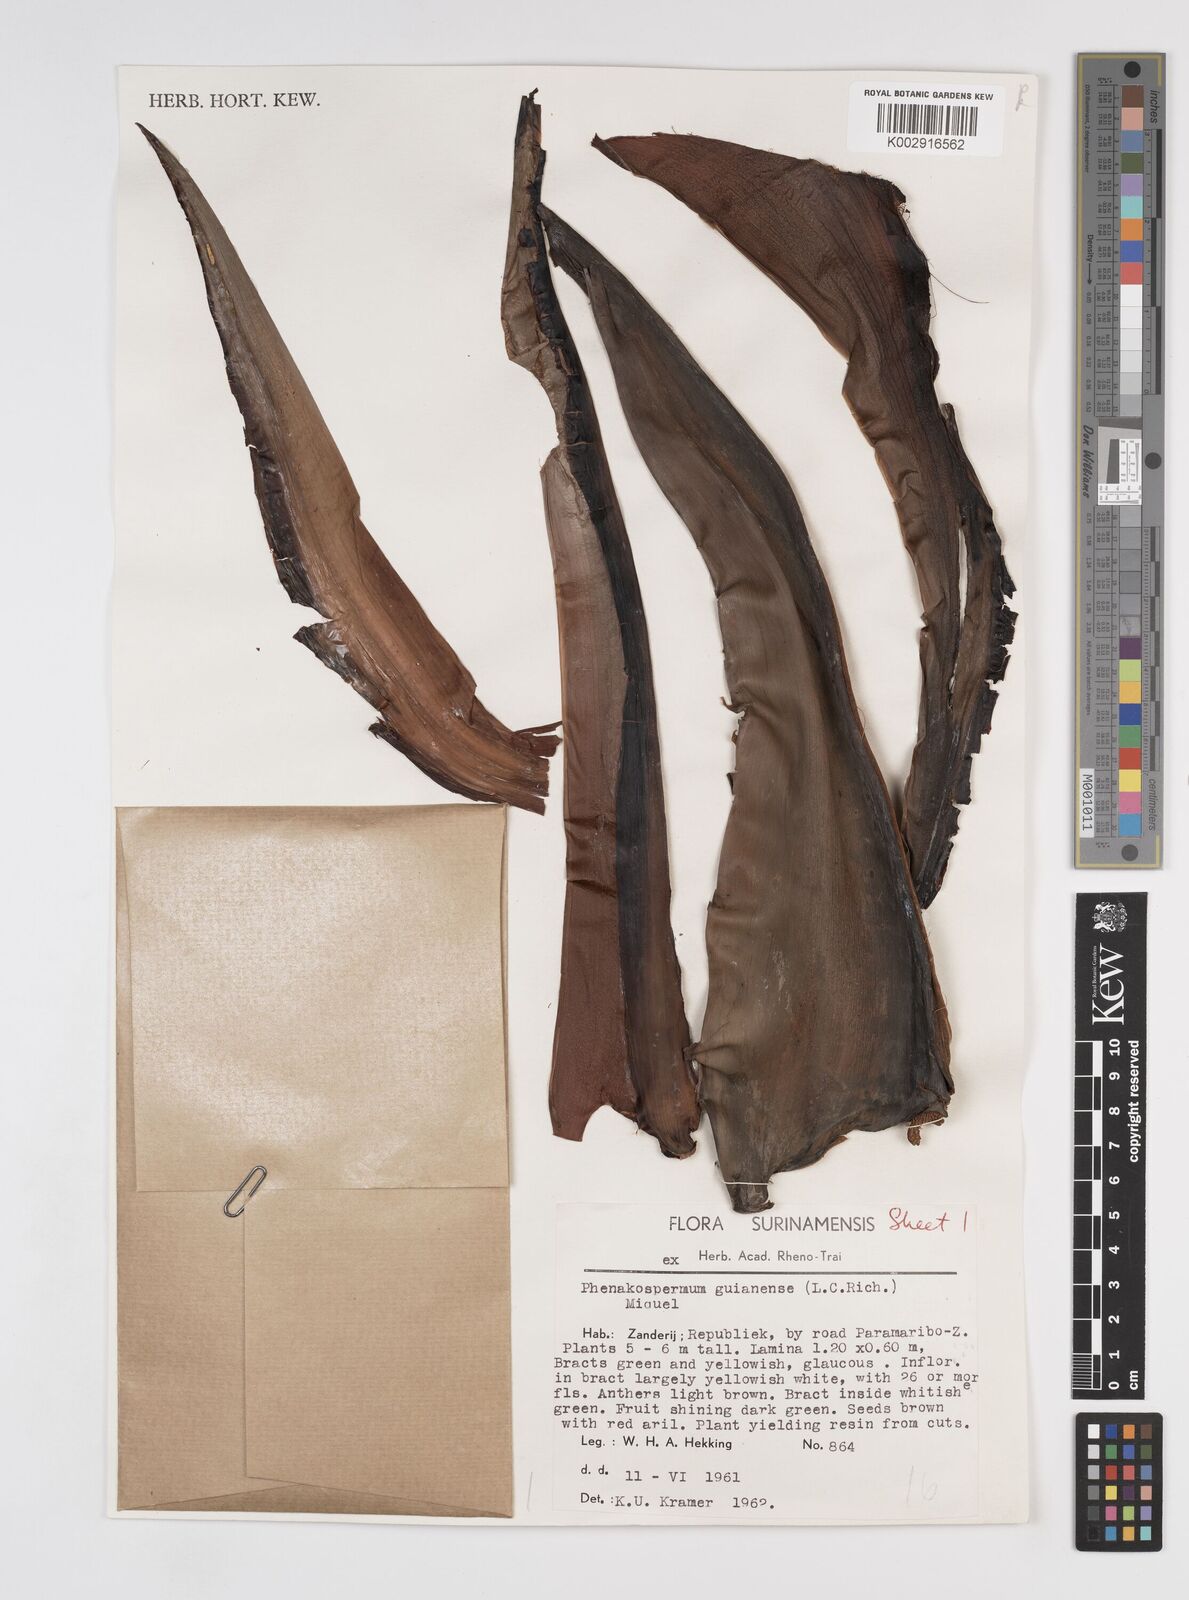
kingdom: Plantae
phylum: Tracheophyta
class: Liliopsida
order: Zingiberales
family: Strelitziaceae
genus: Phenakospermum
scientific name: Phenakospermum guyannense
